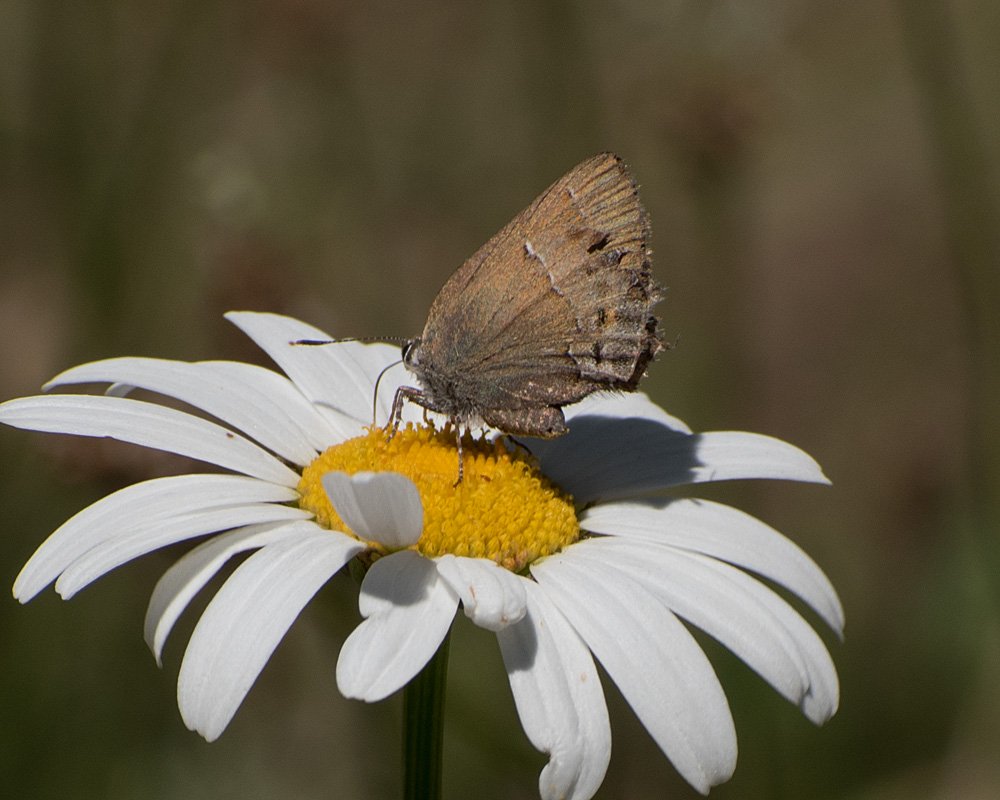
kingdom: Animalia
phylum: Arthropoda
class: Insecta
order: Lepidoptera
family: Lycaenidae
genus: Mitoura
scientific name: Mitoura nelsoni
